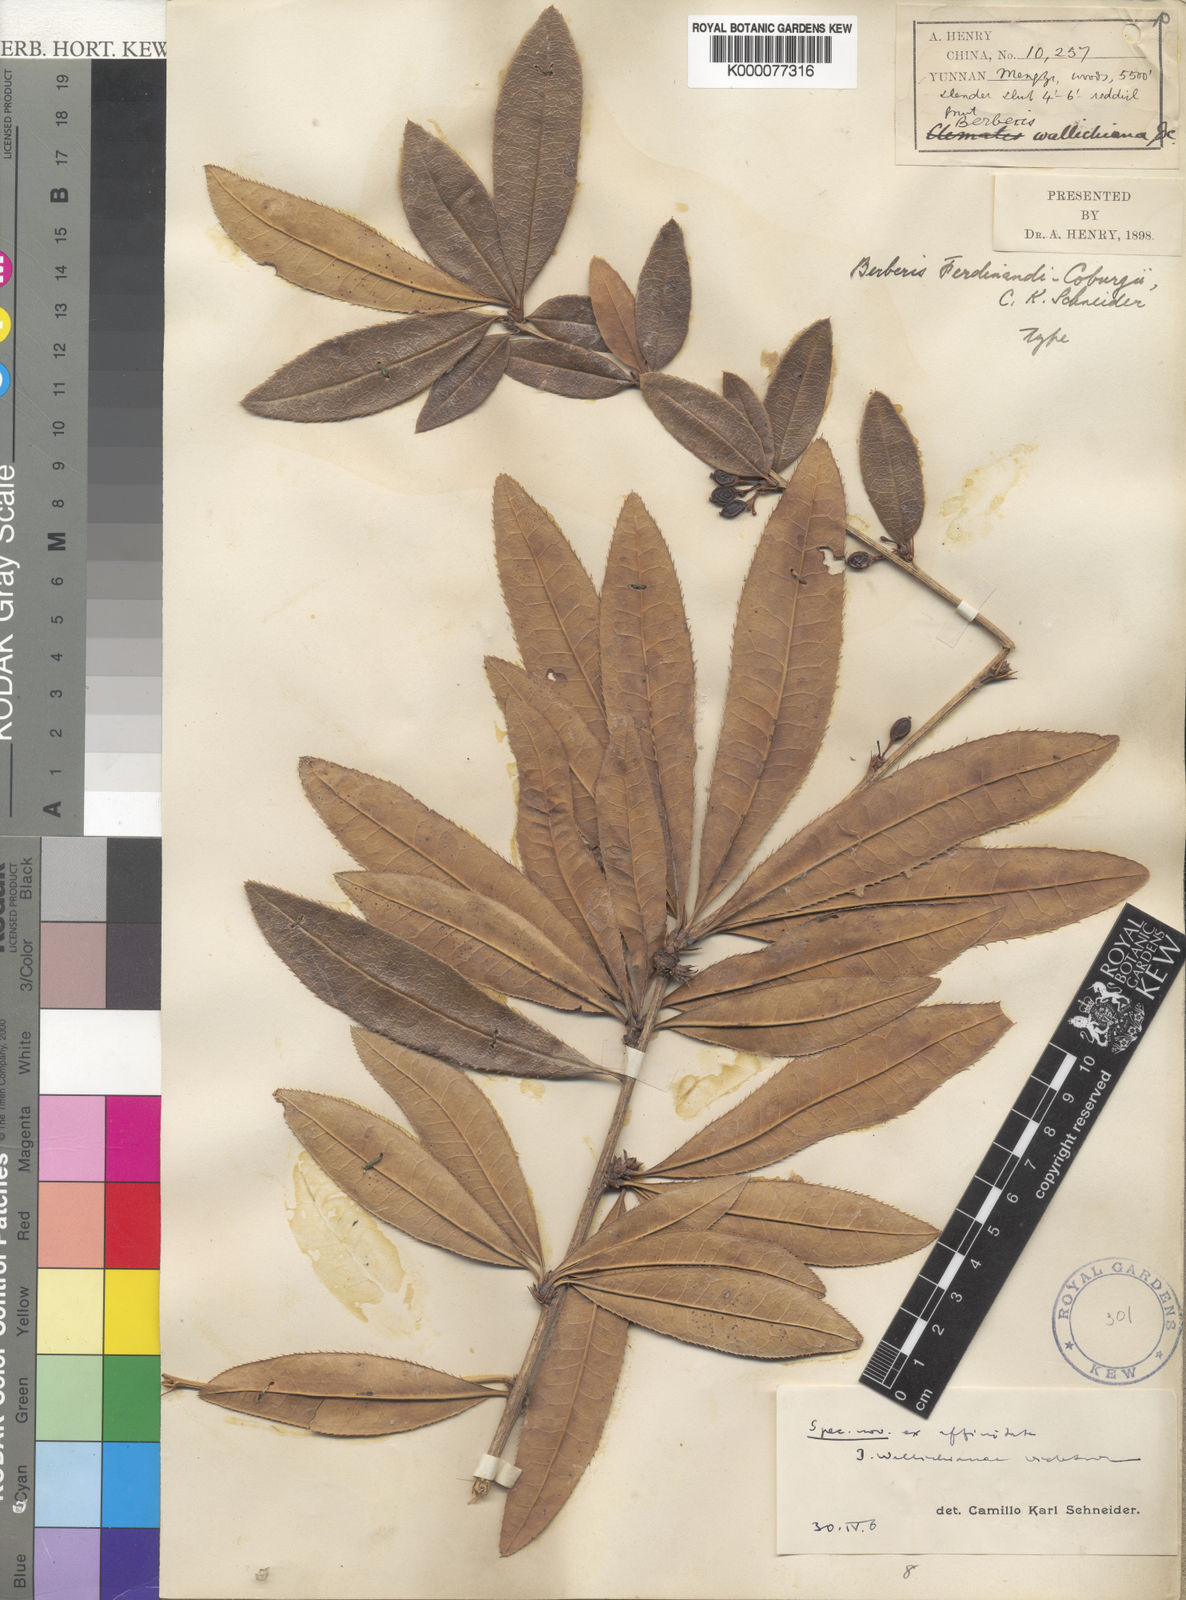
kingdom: Plantae
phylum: Tracheophyta
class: Magnoliopsida
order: Ranunculales
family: Berberidaceae
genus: Berberis
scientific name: Berberis ferdinandi-coburgii
